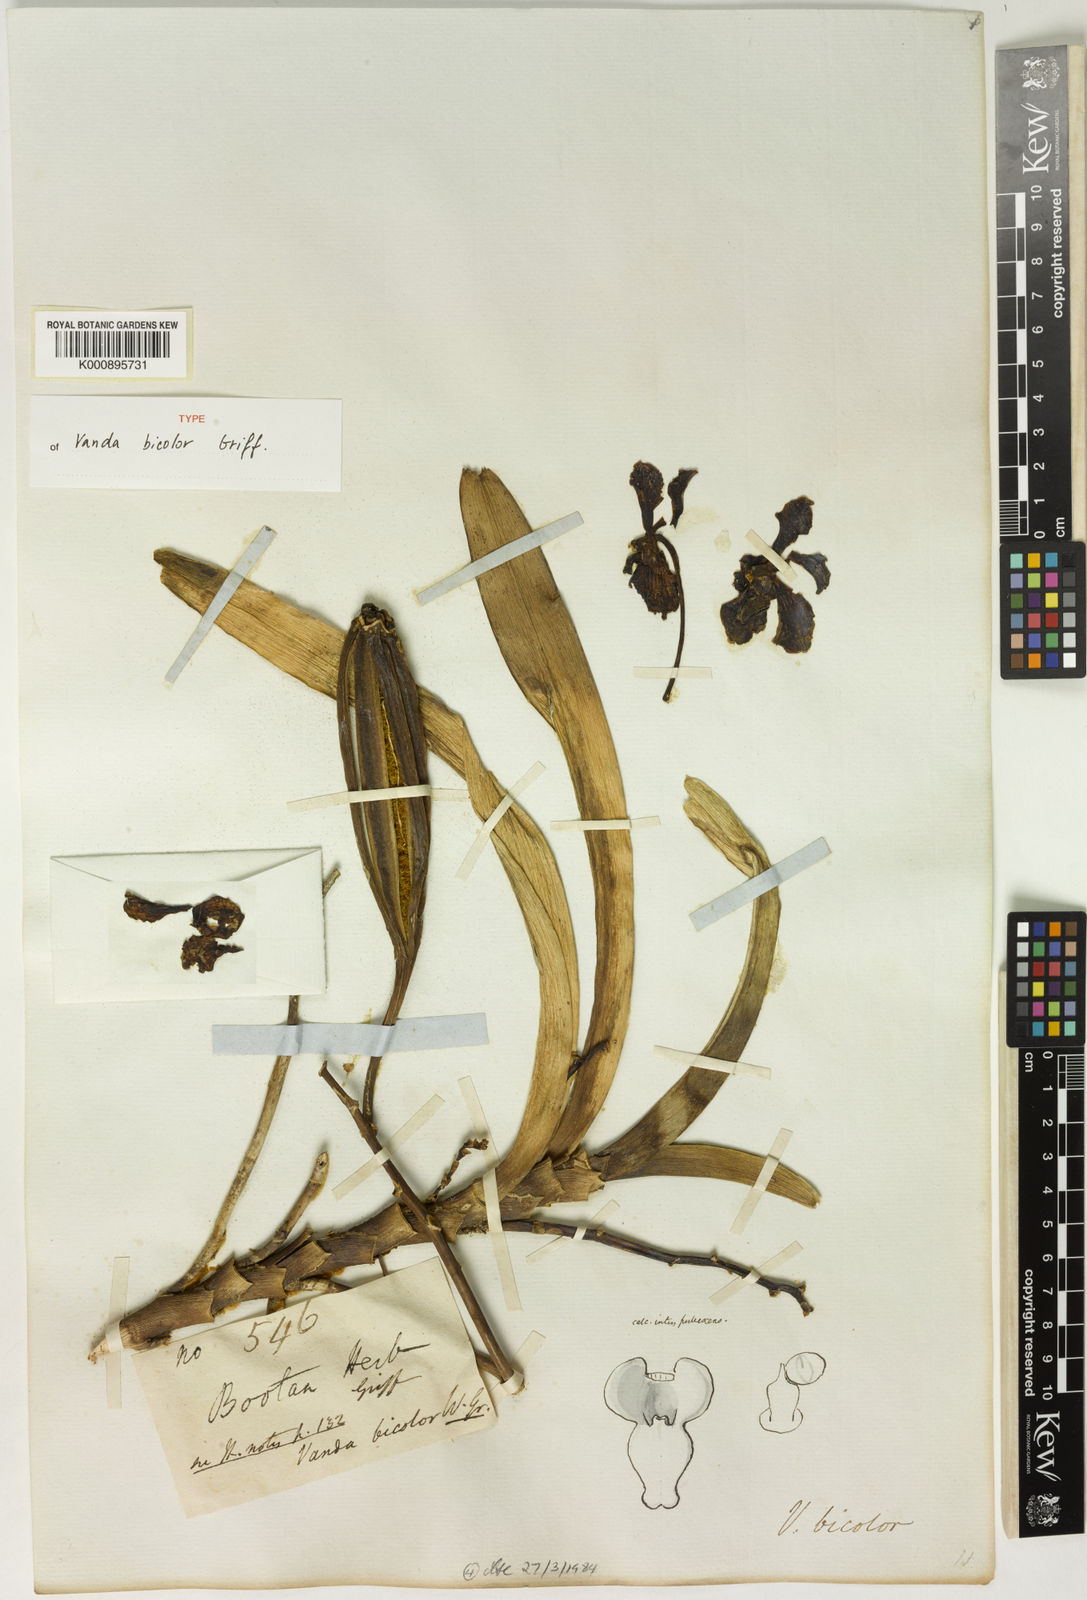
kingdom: Plantae
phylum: Tracheophyta
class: Liliopsida
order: Asparagales
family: Orchidaceae
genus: Vanda
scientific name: Vanda bicolor
